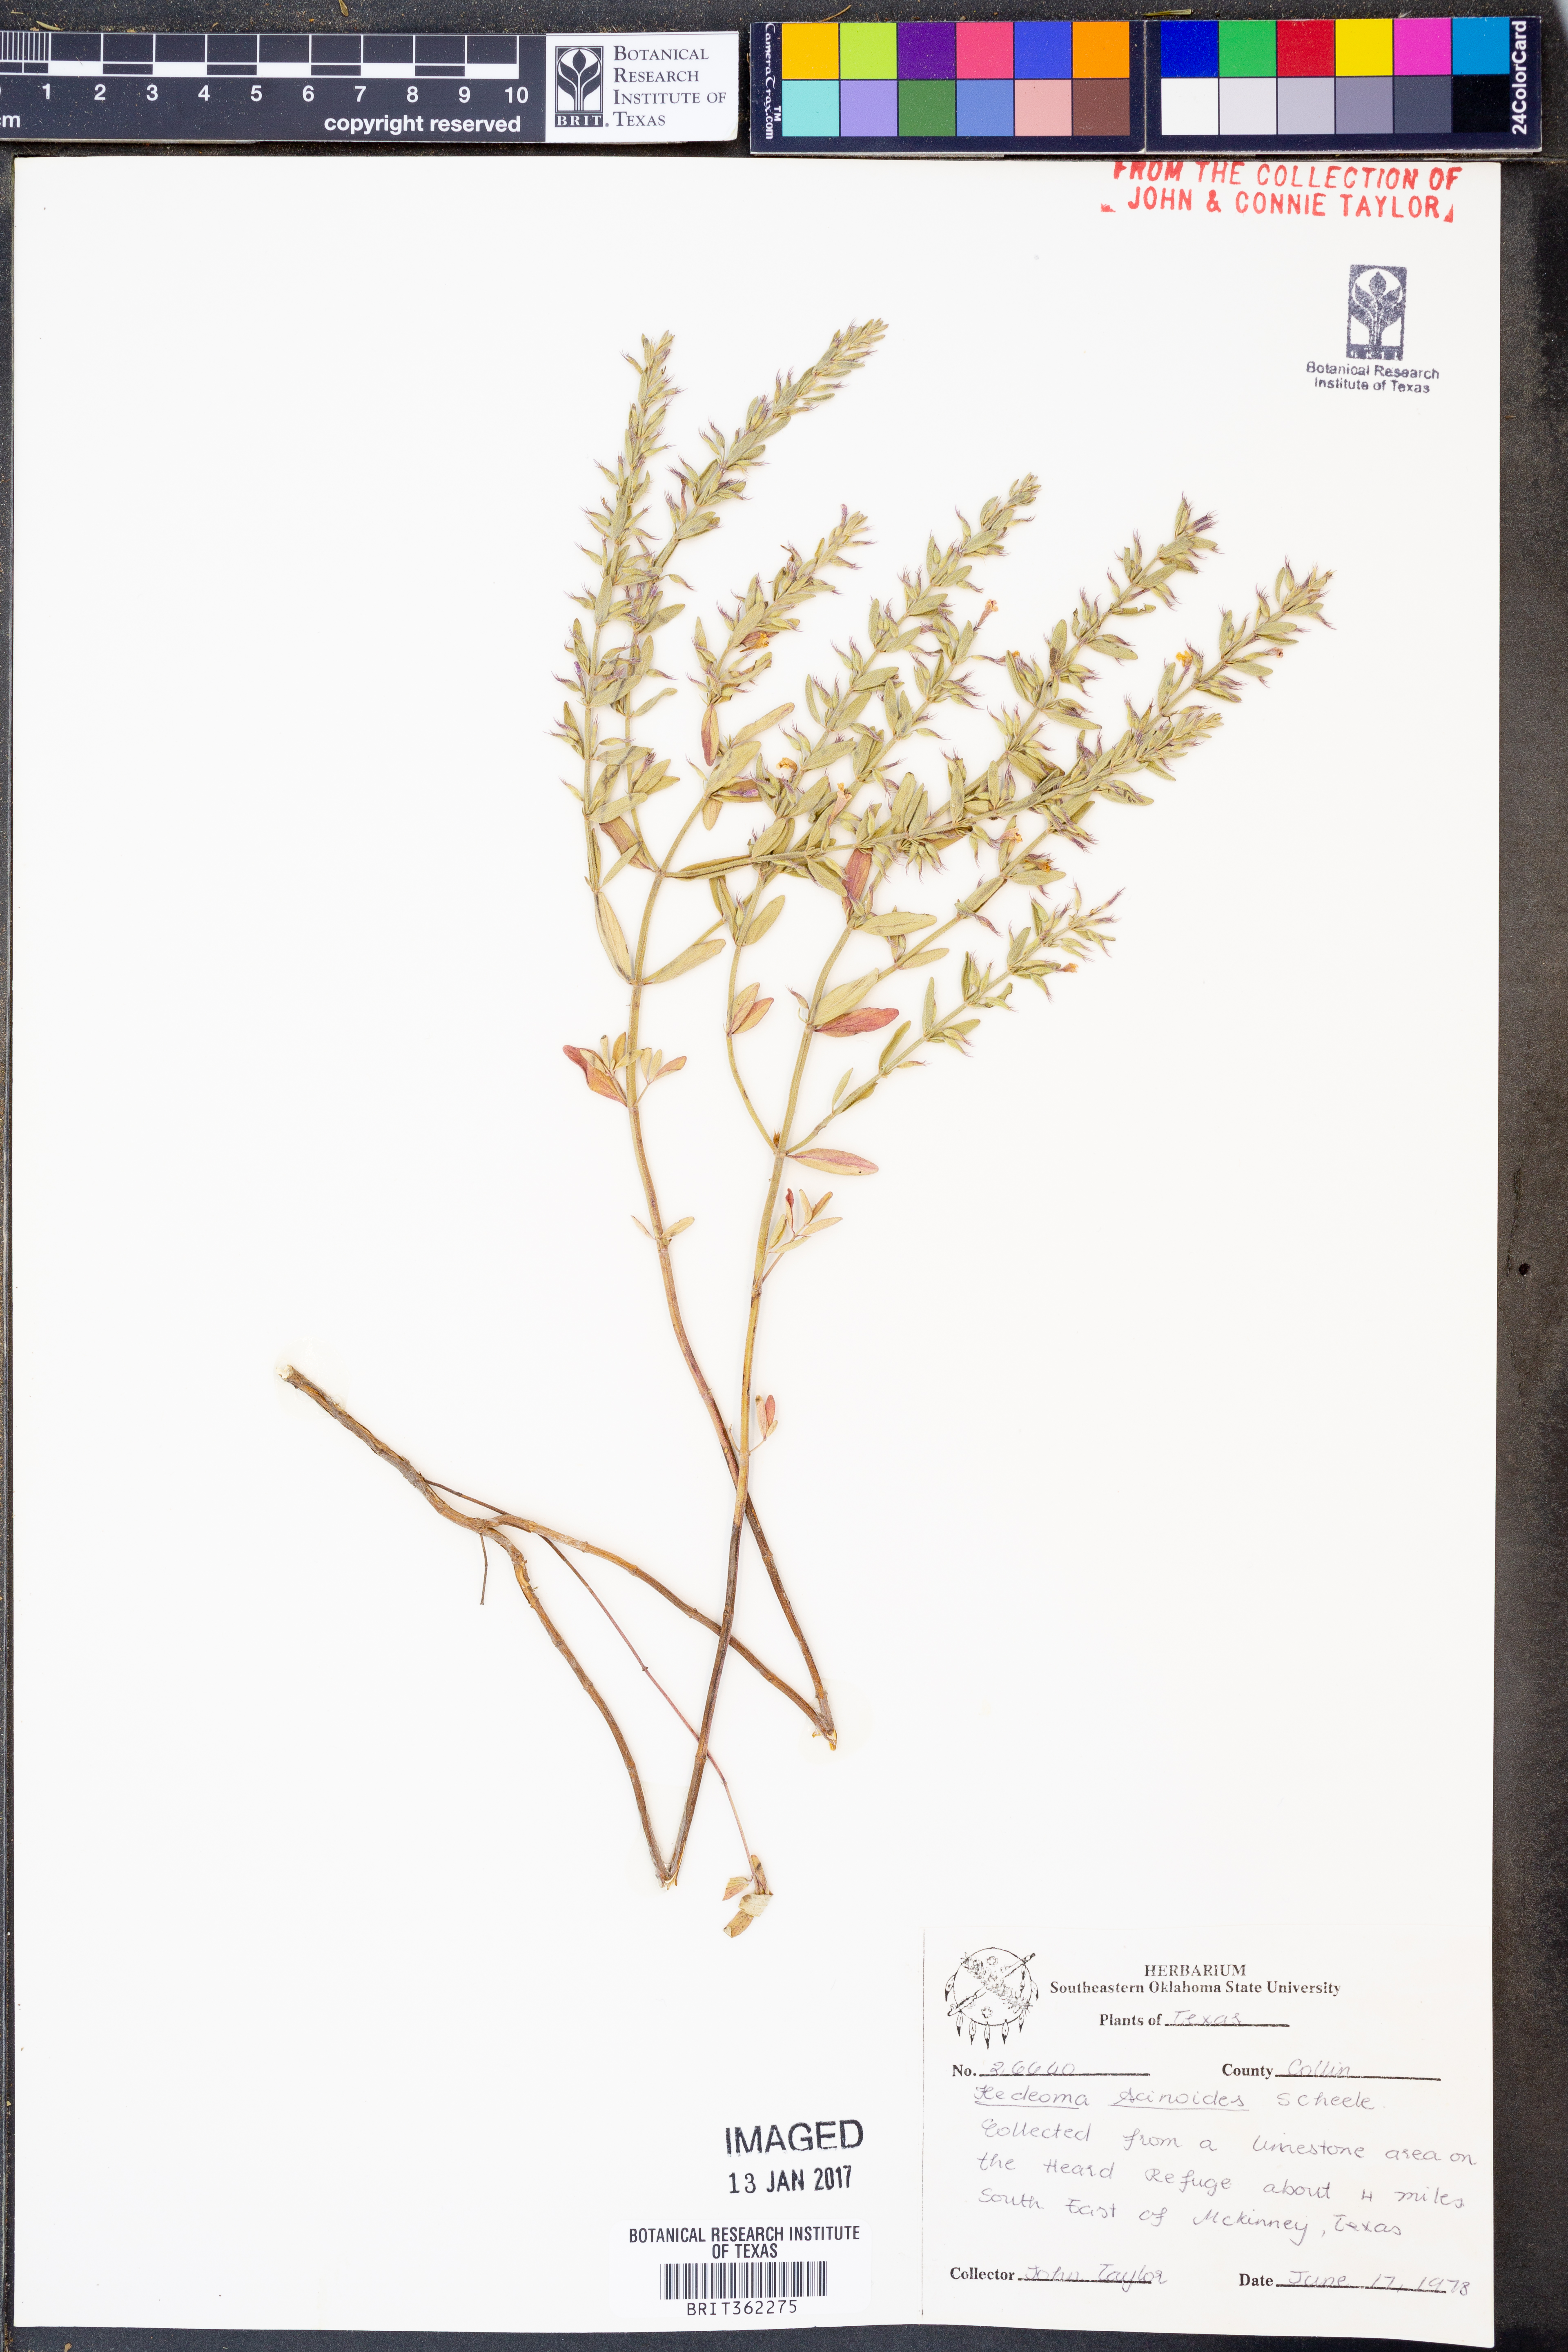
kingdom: Plantae
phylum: Tracheophyta
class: Magnoliopsida
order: Lamiales
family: Lamiaceae
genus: Hedeoma
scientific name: Hedeoma acinoides
